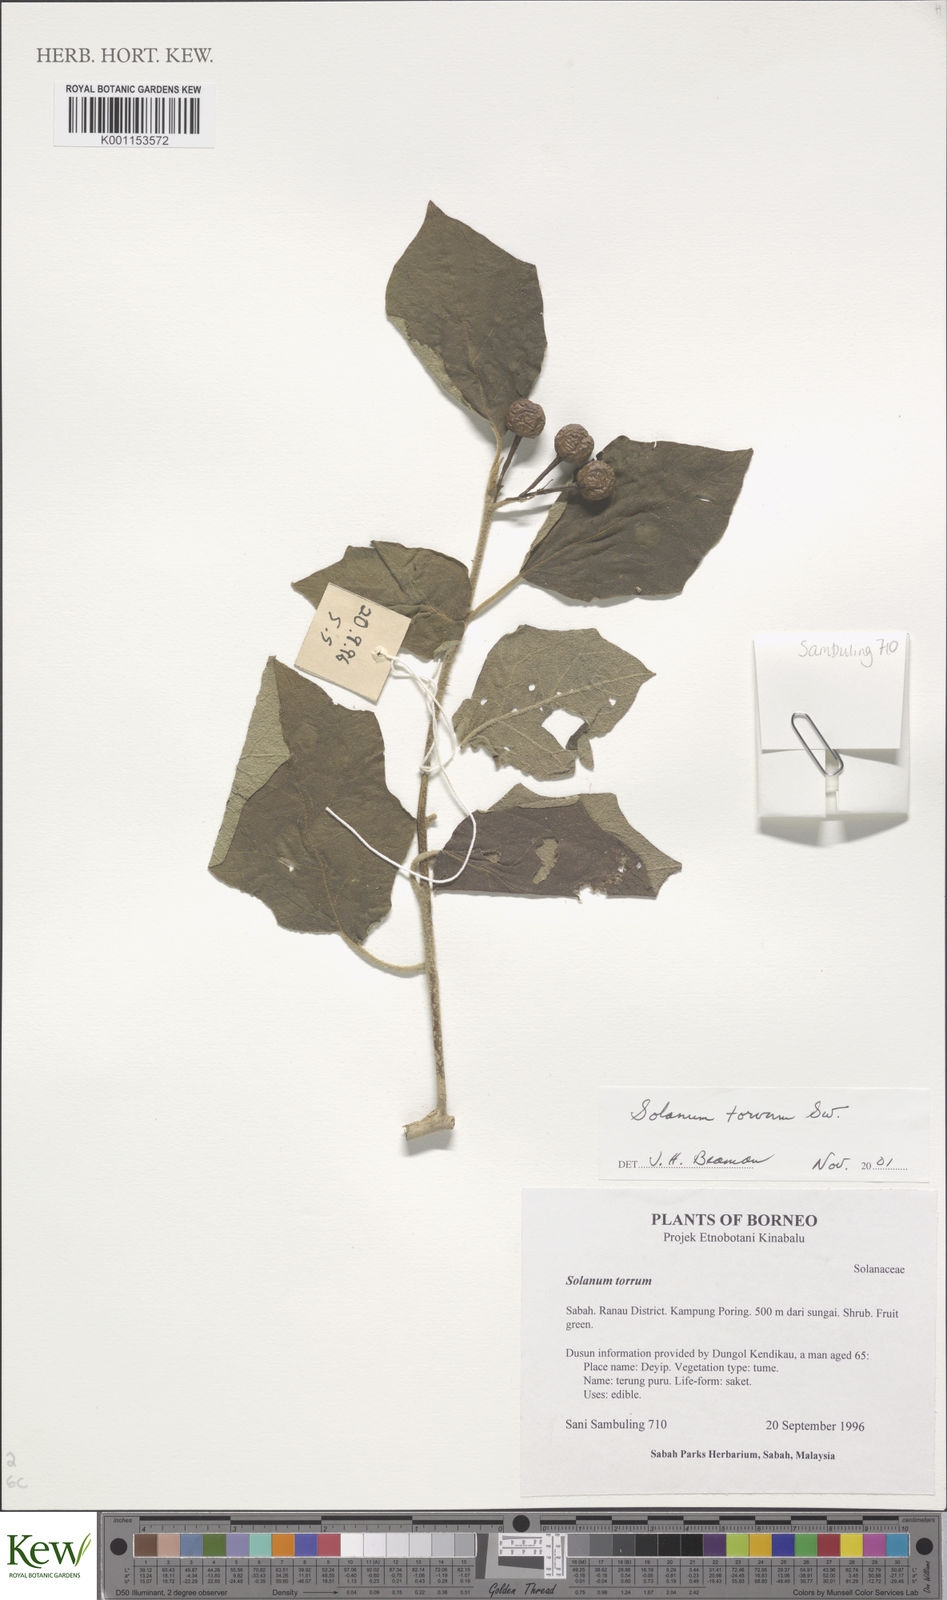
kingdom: Plantae
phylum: Tracheophyta
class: Magnoliopsida
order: Solanales
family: Solanaceae
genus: Solanum
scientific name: Solanum torvum
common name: Turkey berry
